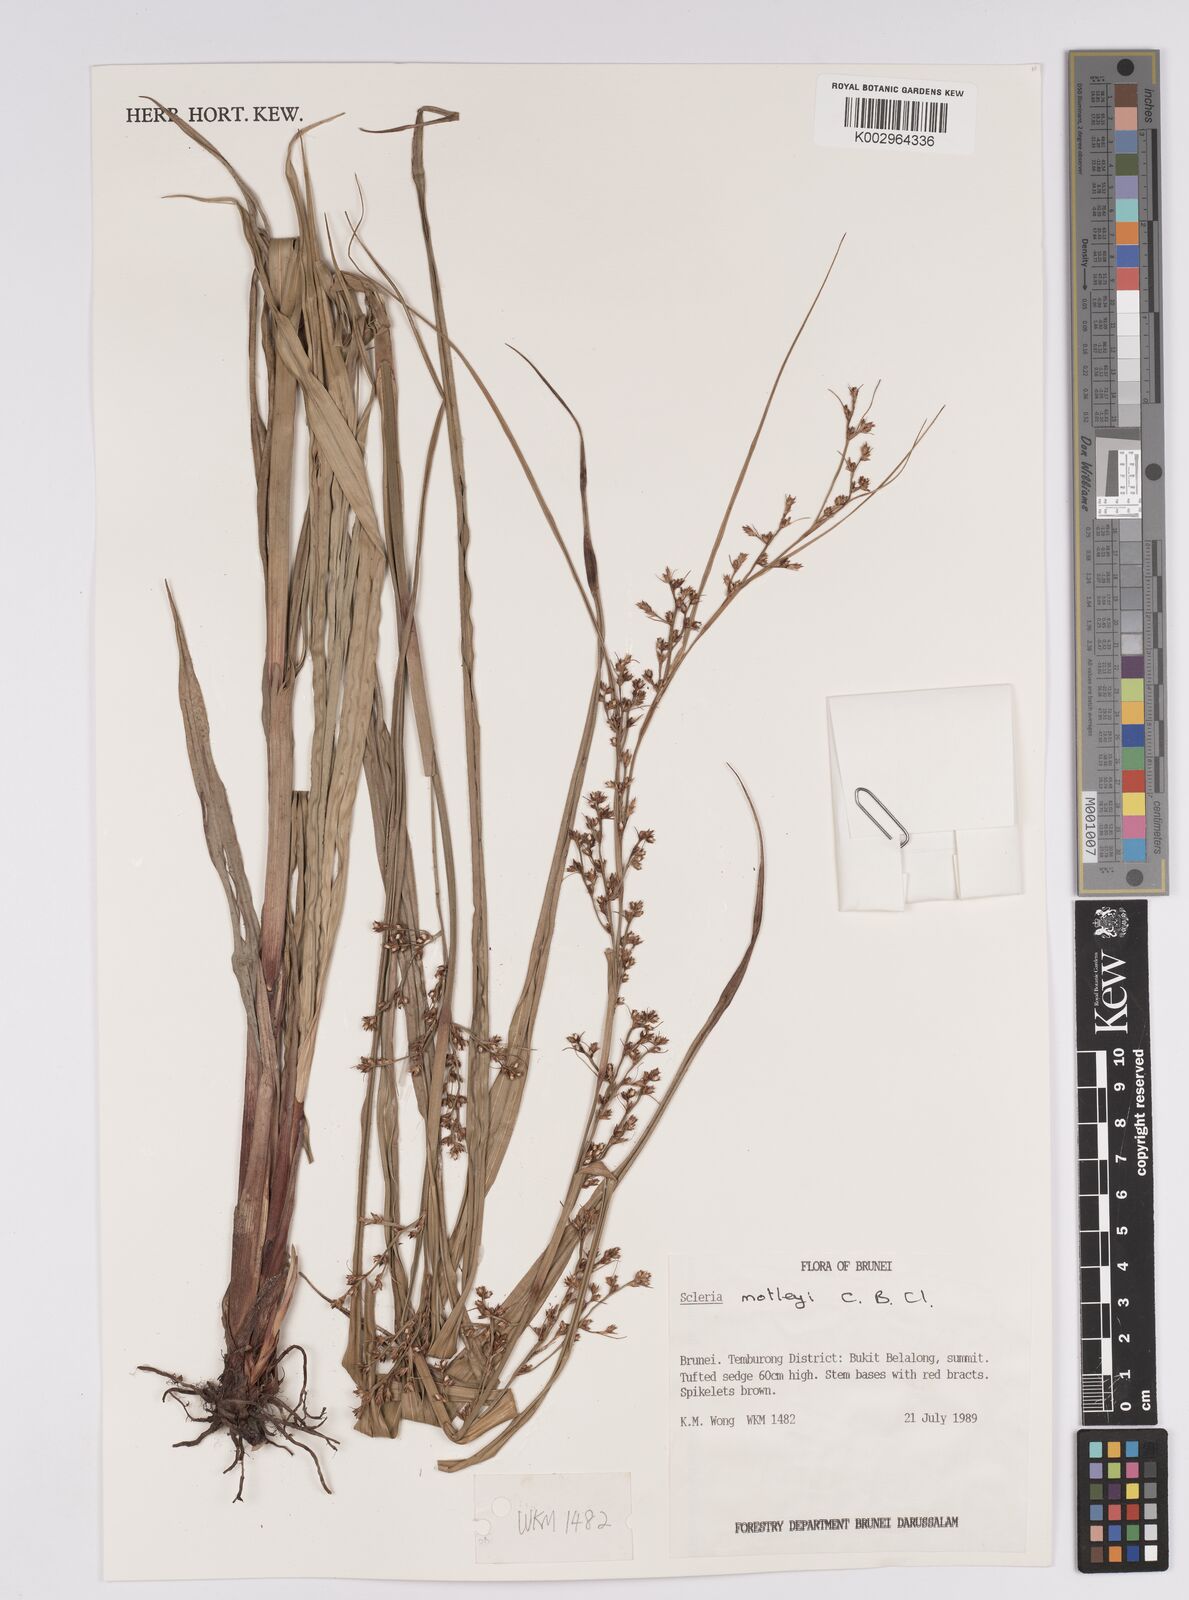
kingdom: Plantae
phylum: Tracheophyta
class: Liliopsida
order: Poales
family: Cyperaceae
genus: Scleria
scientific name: Scleria motleyi
